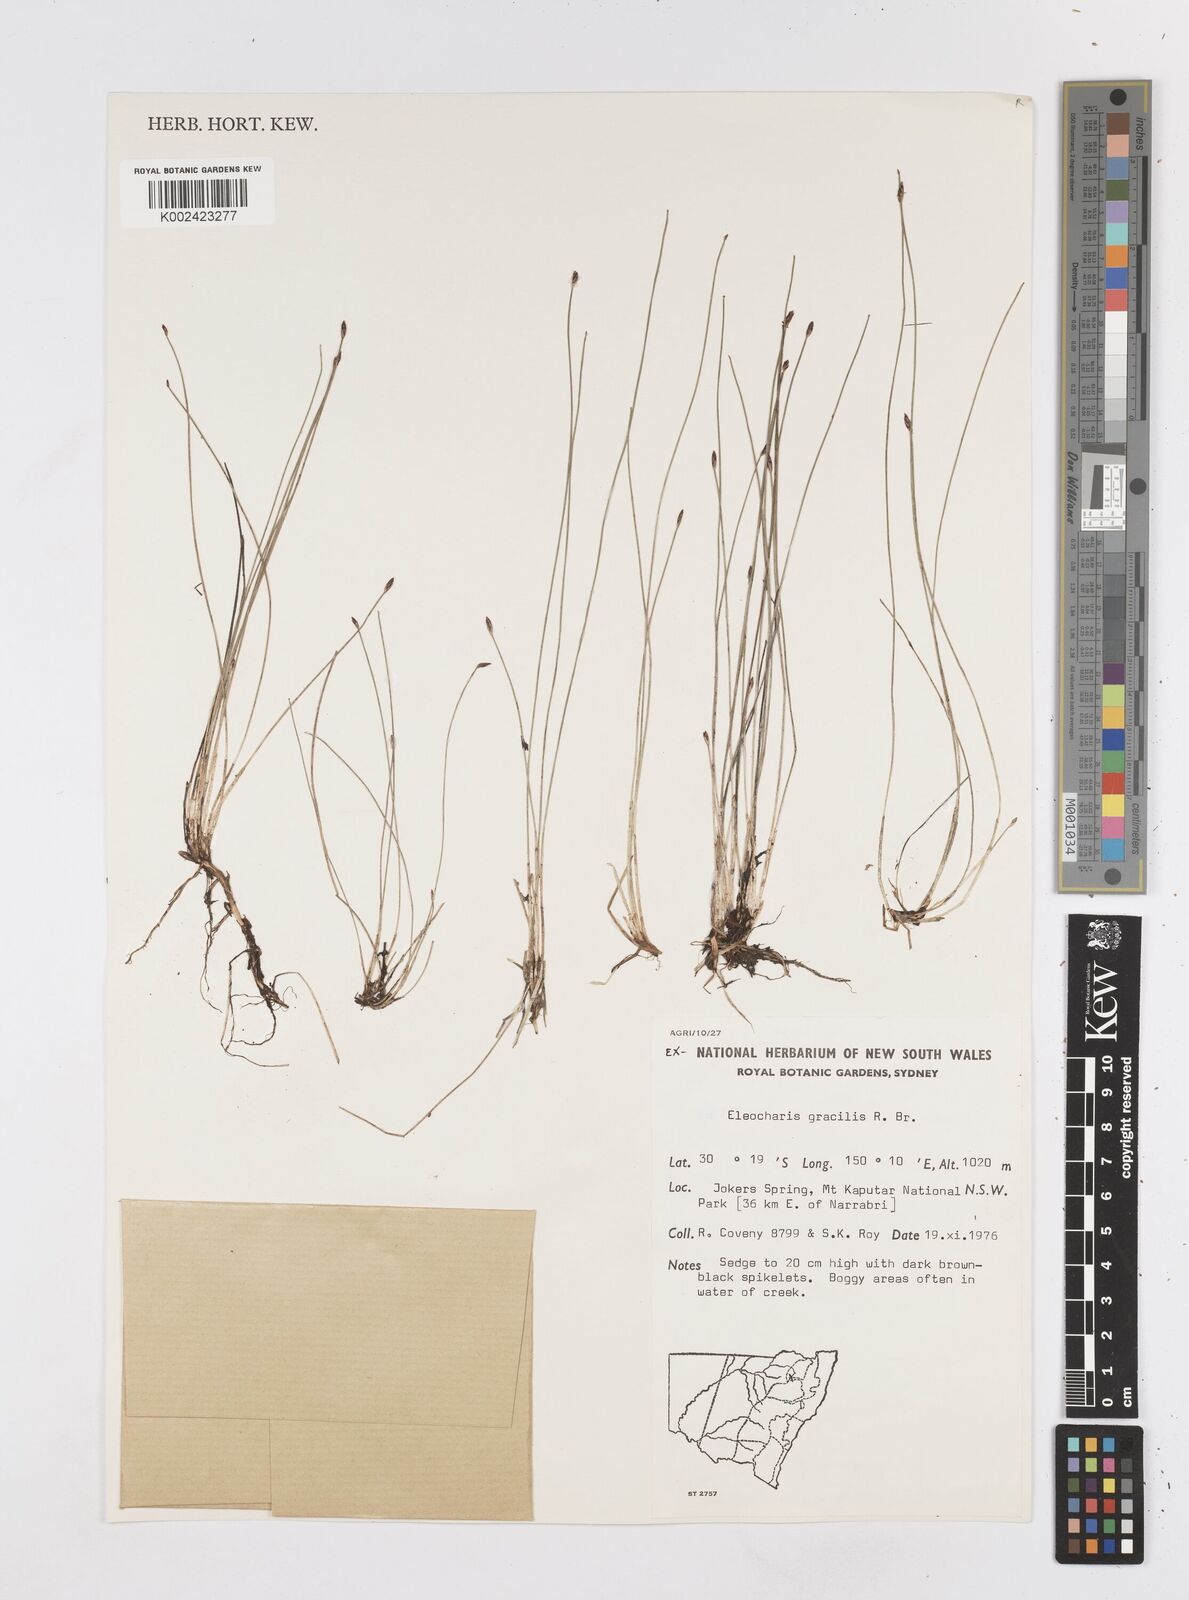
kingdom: Plantae
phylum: Tracheophyta
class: Liliopsida
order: Poales
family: Cyperaceae
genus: Eleocharis
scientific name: Eleocharis multicaulis
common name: Many-stalked spike-rush
